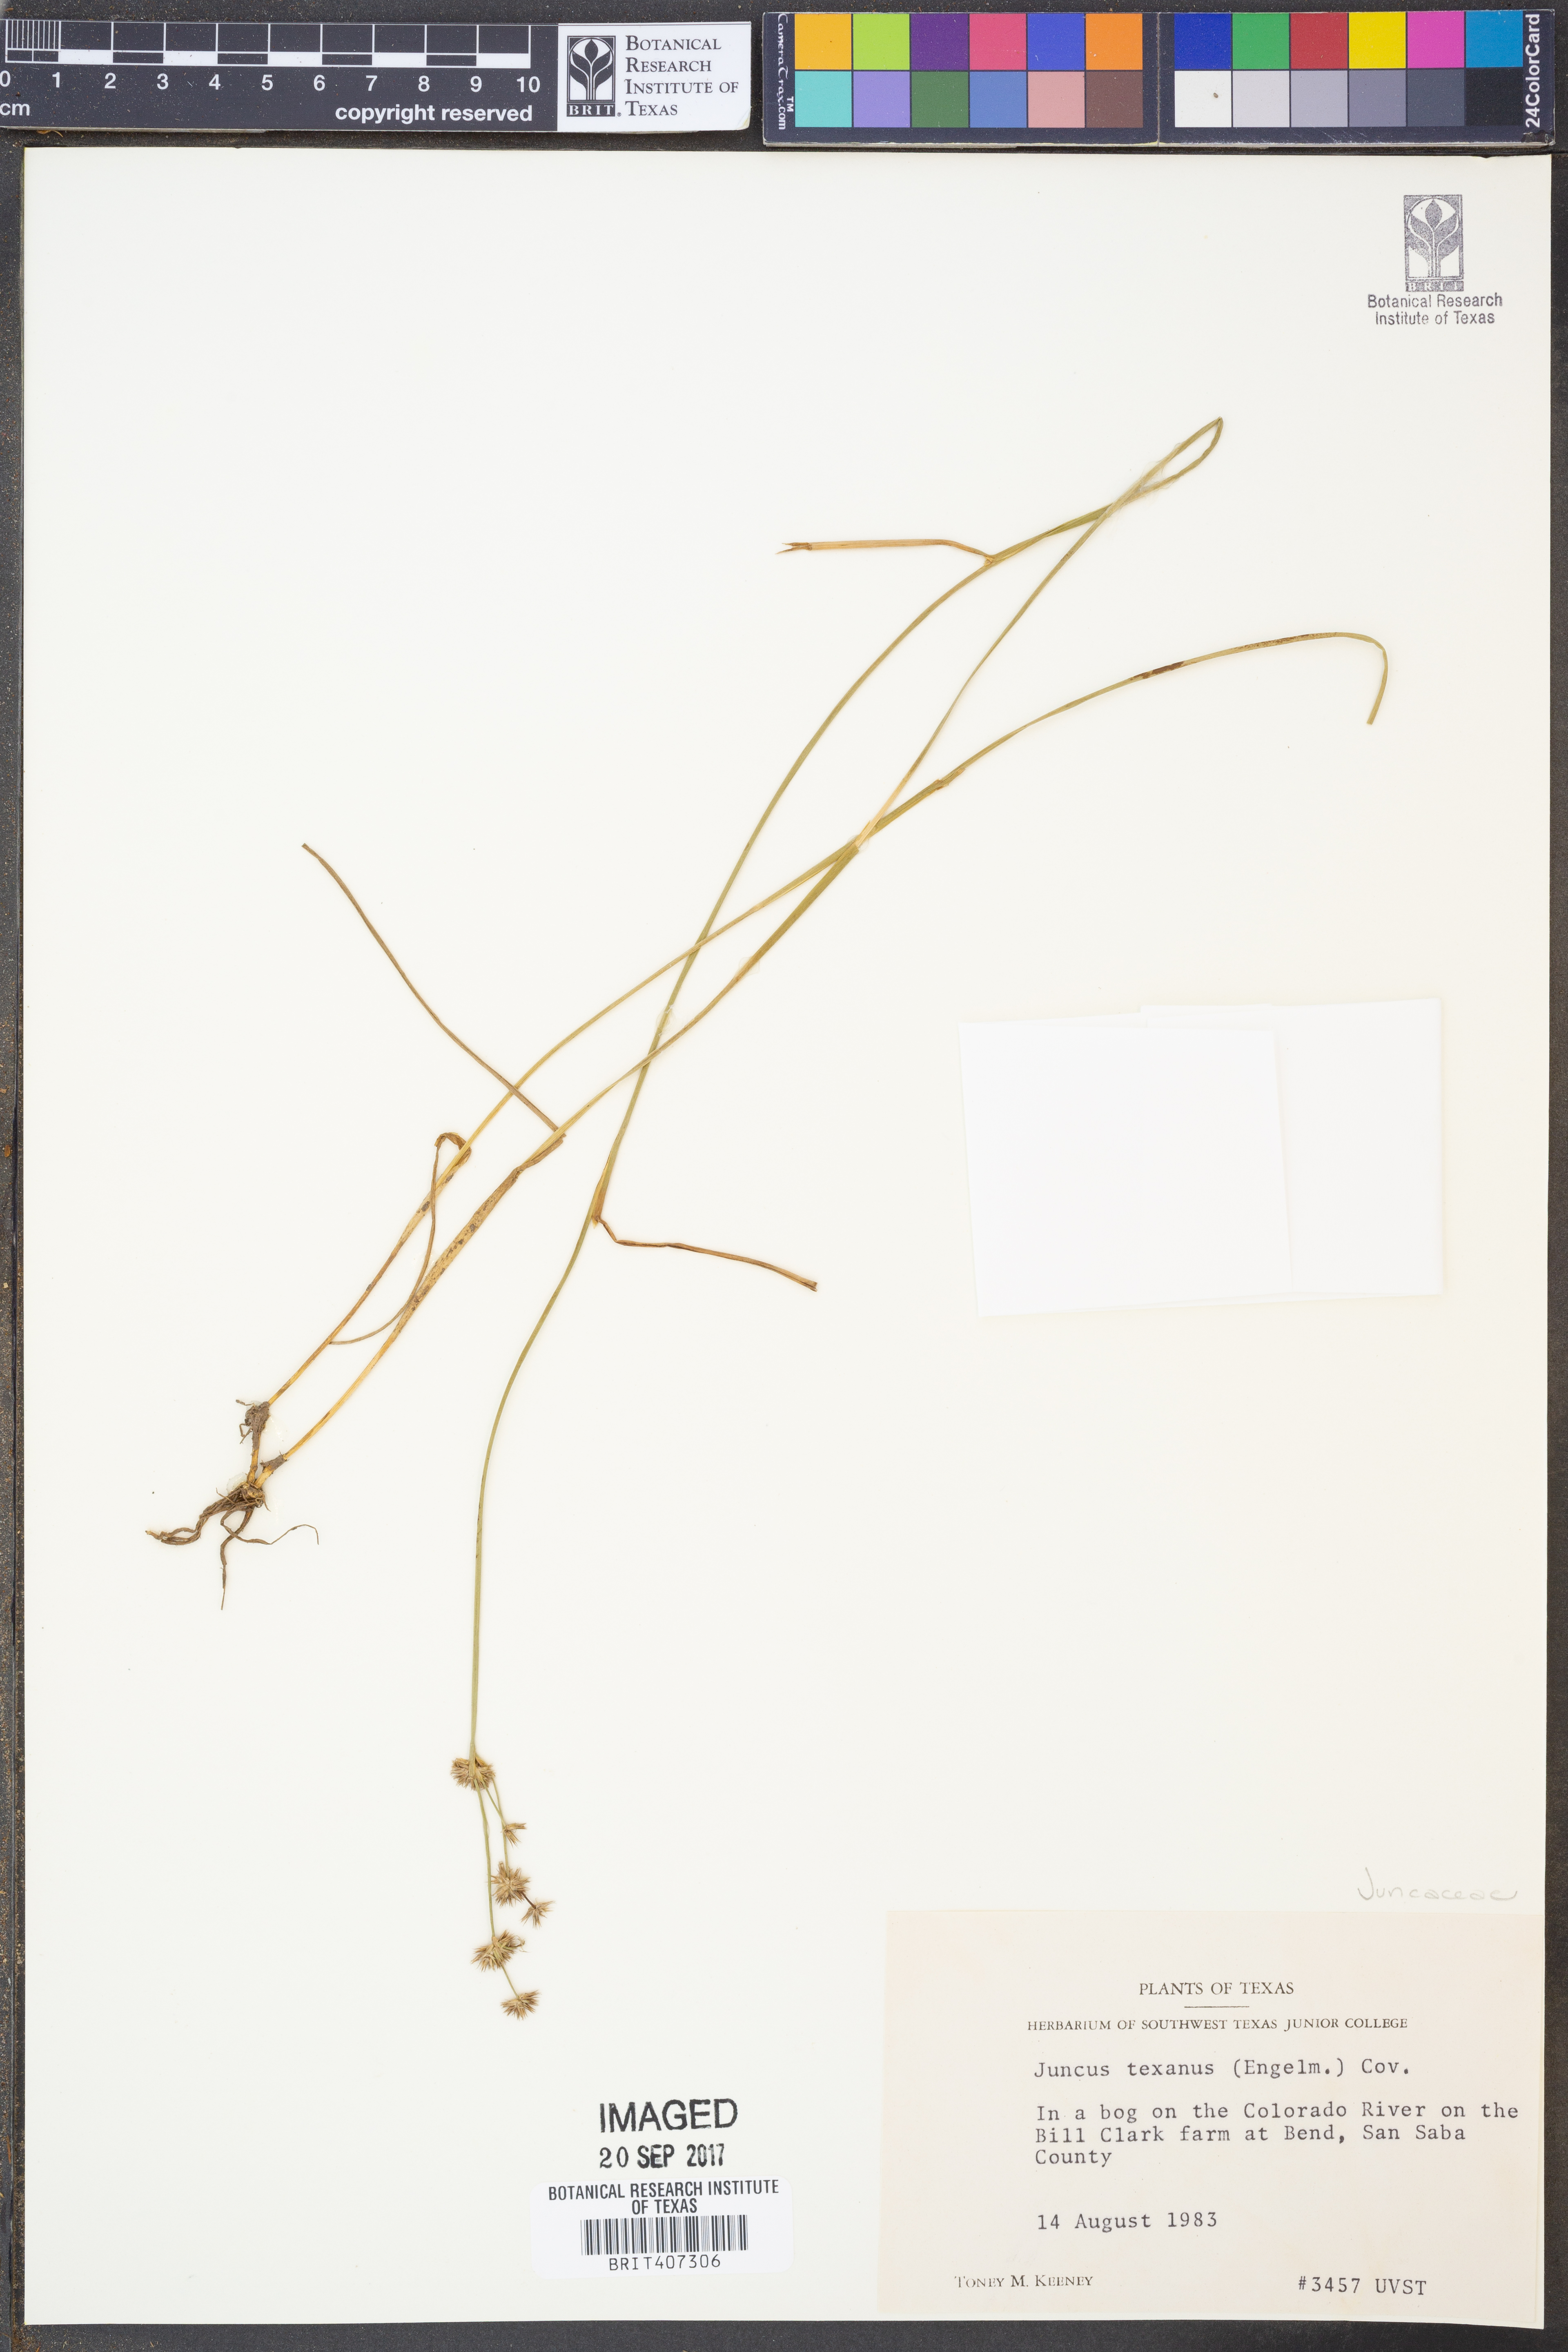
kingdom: Plantae
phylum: Tracheophyta
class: Liliopsida
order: Poales
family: Juncaceae
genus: Juncus
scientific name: Juncus texanus
